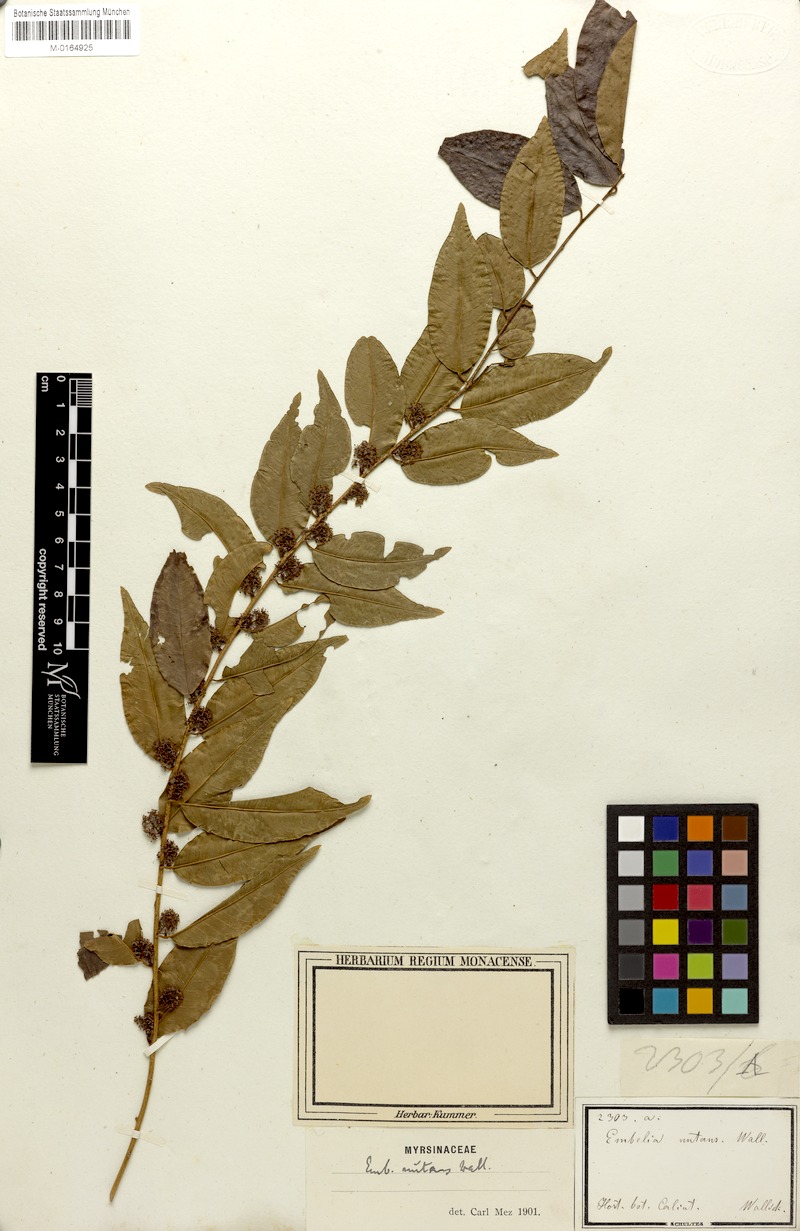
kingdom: Plantae
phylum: Tracheophyta
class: Magnoliopsida
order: Ericales
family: Primulaceae
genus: Embelia
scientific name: Embelia nutans
